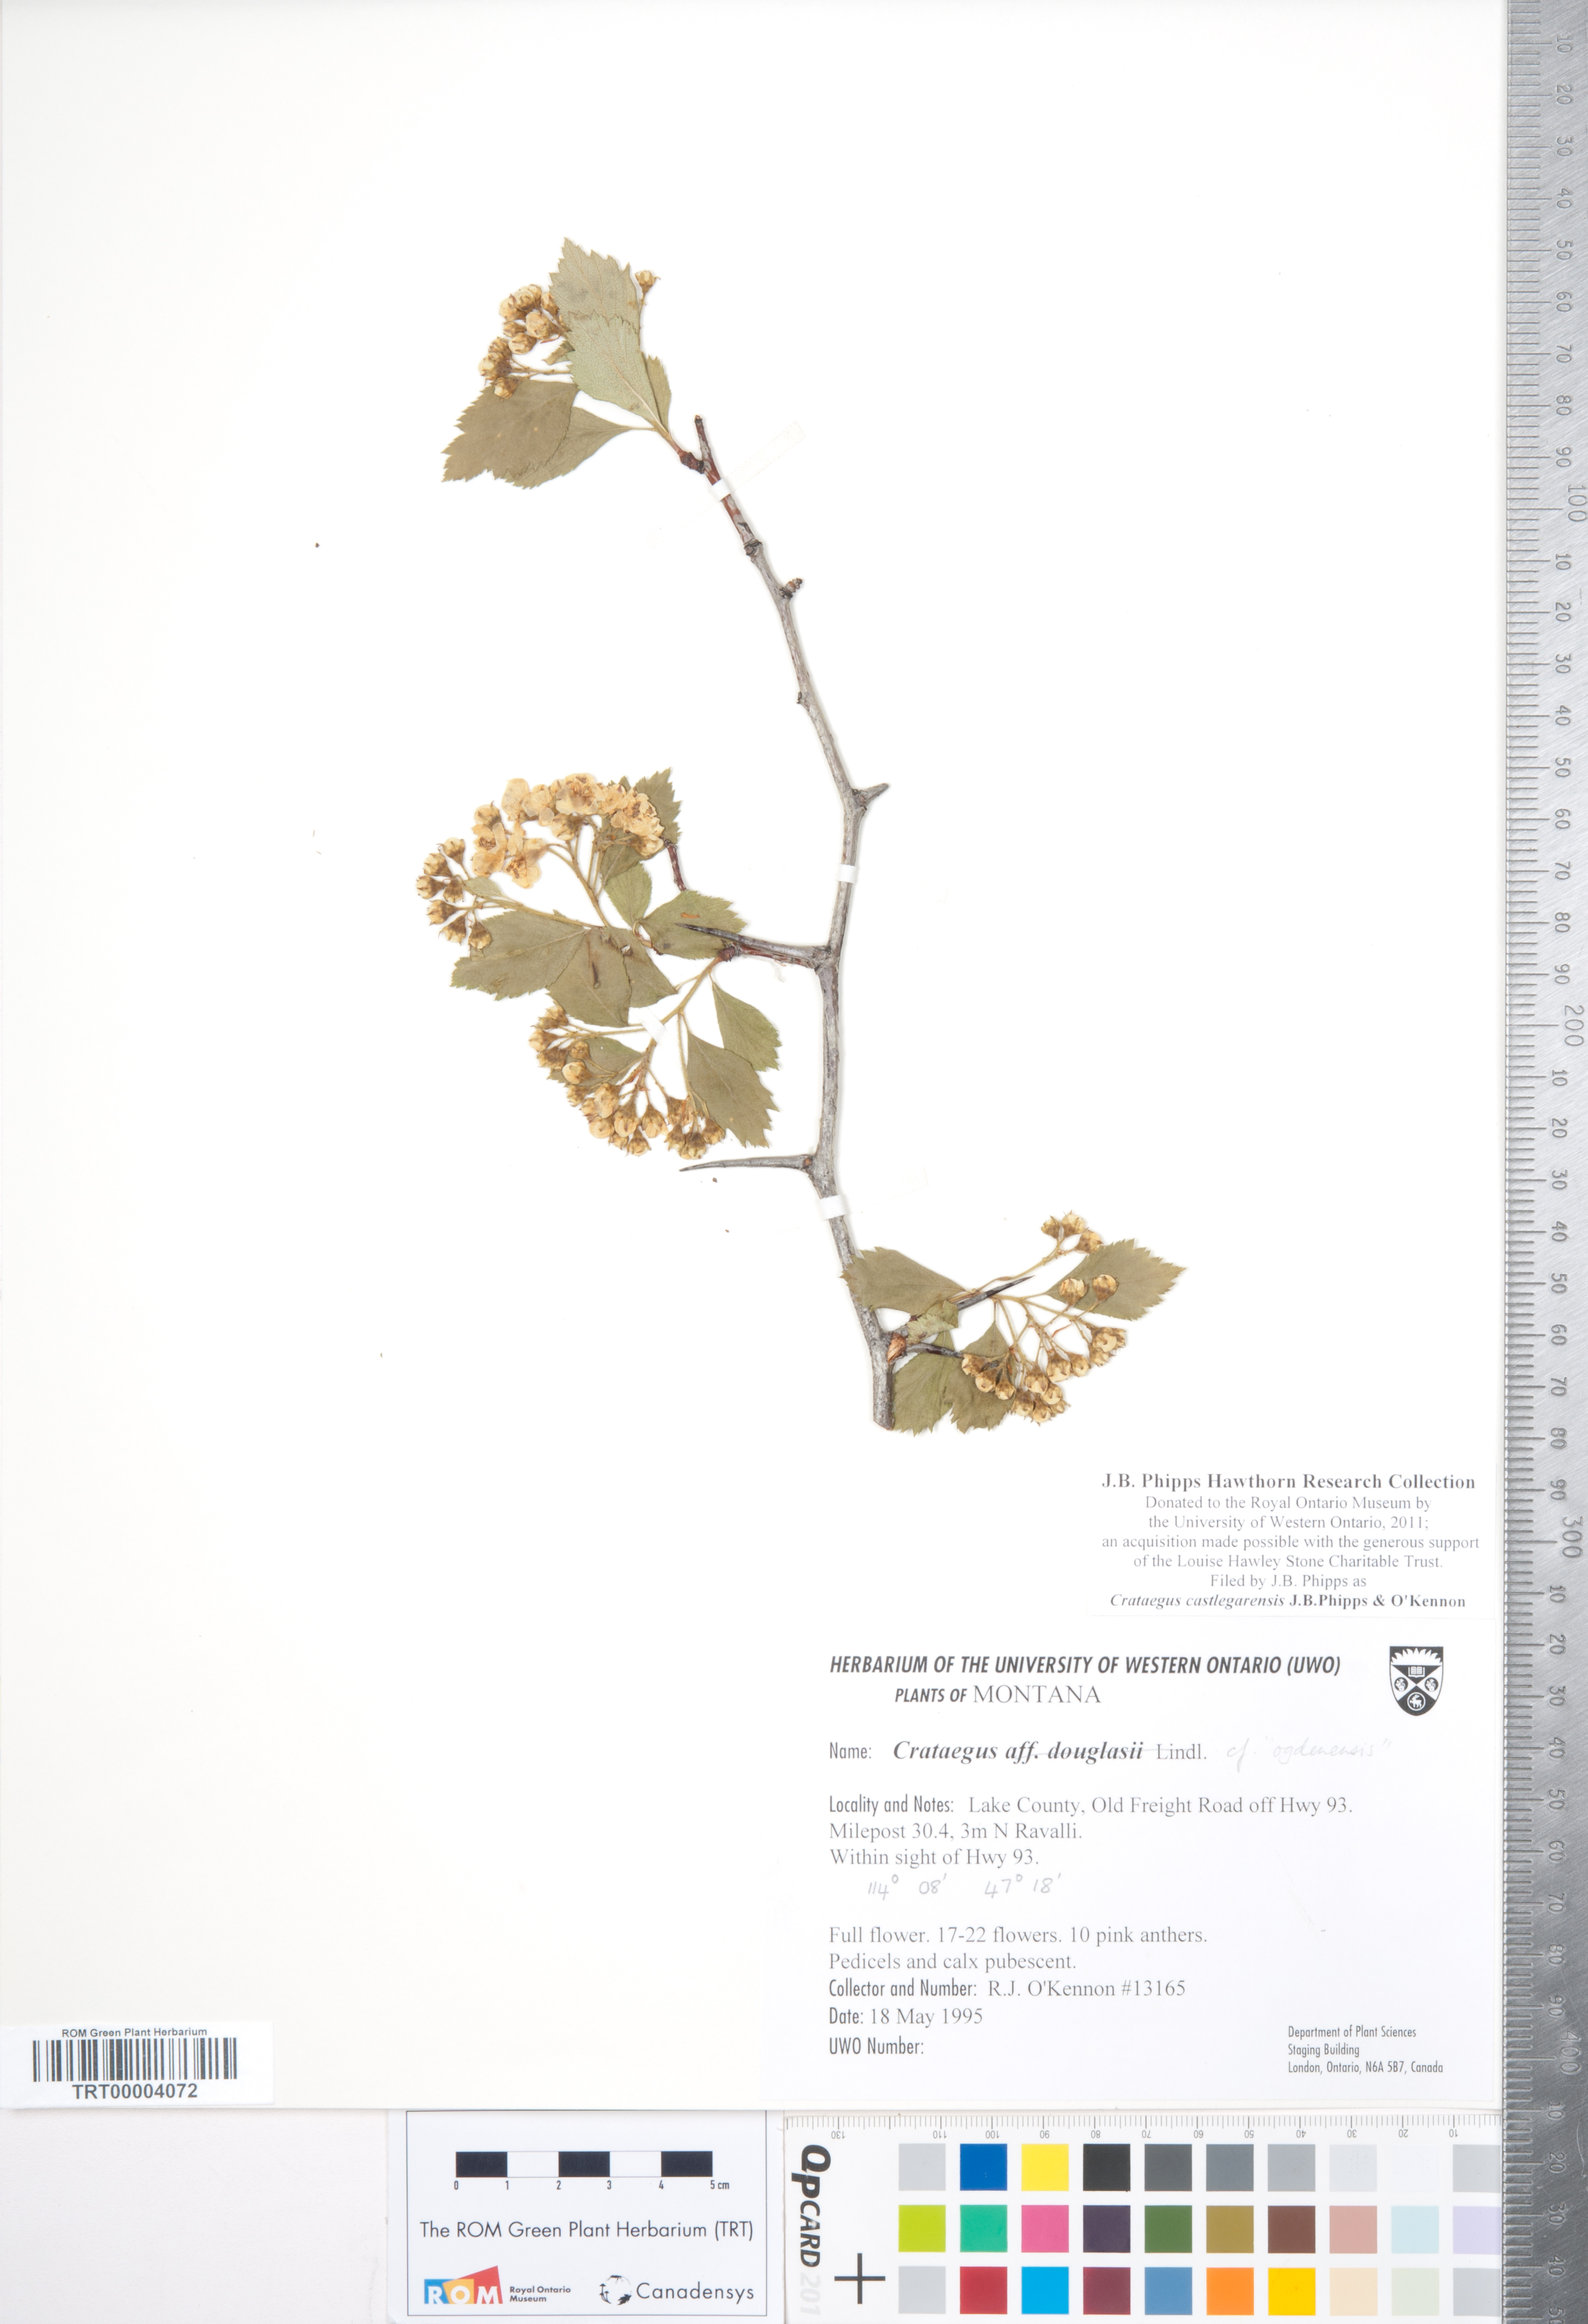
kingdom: Plantae
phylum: Tracheophyta
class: Magnoliopsida
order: Rosales
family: Rosaceae
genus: Crataegus
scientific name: Crataegus castlegarensis
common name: Castlegar hawthorn
